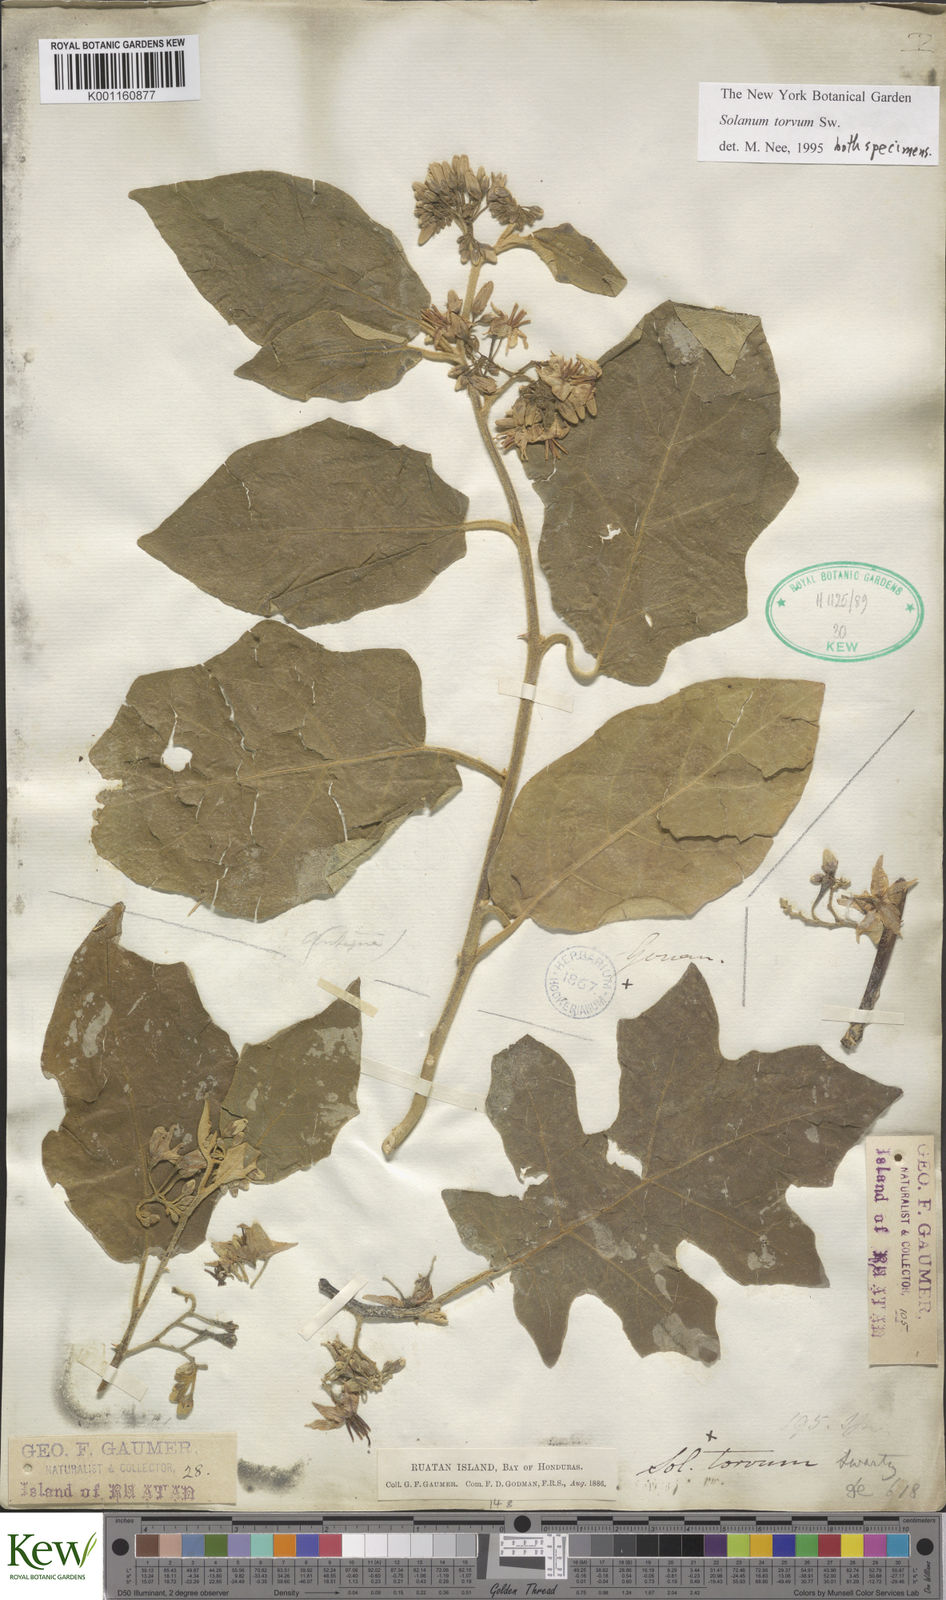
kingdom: Plantae
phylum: Tracheophyta
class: Magnoliopsida
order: Solanales
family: Solanaceae
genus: Solanum
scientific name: Solanum torvum
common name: Turkey berry
